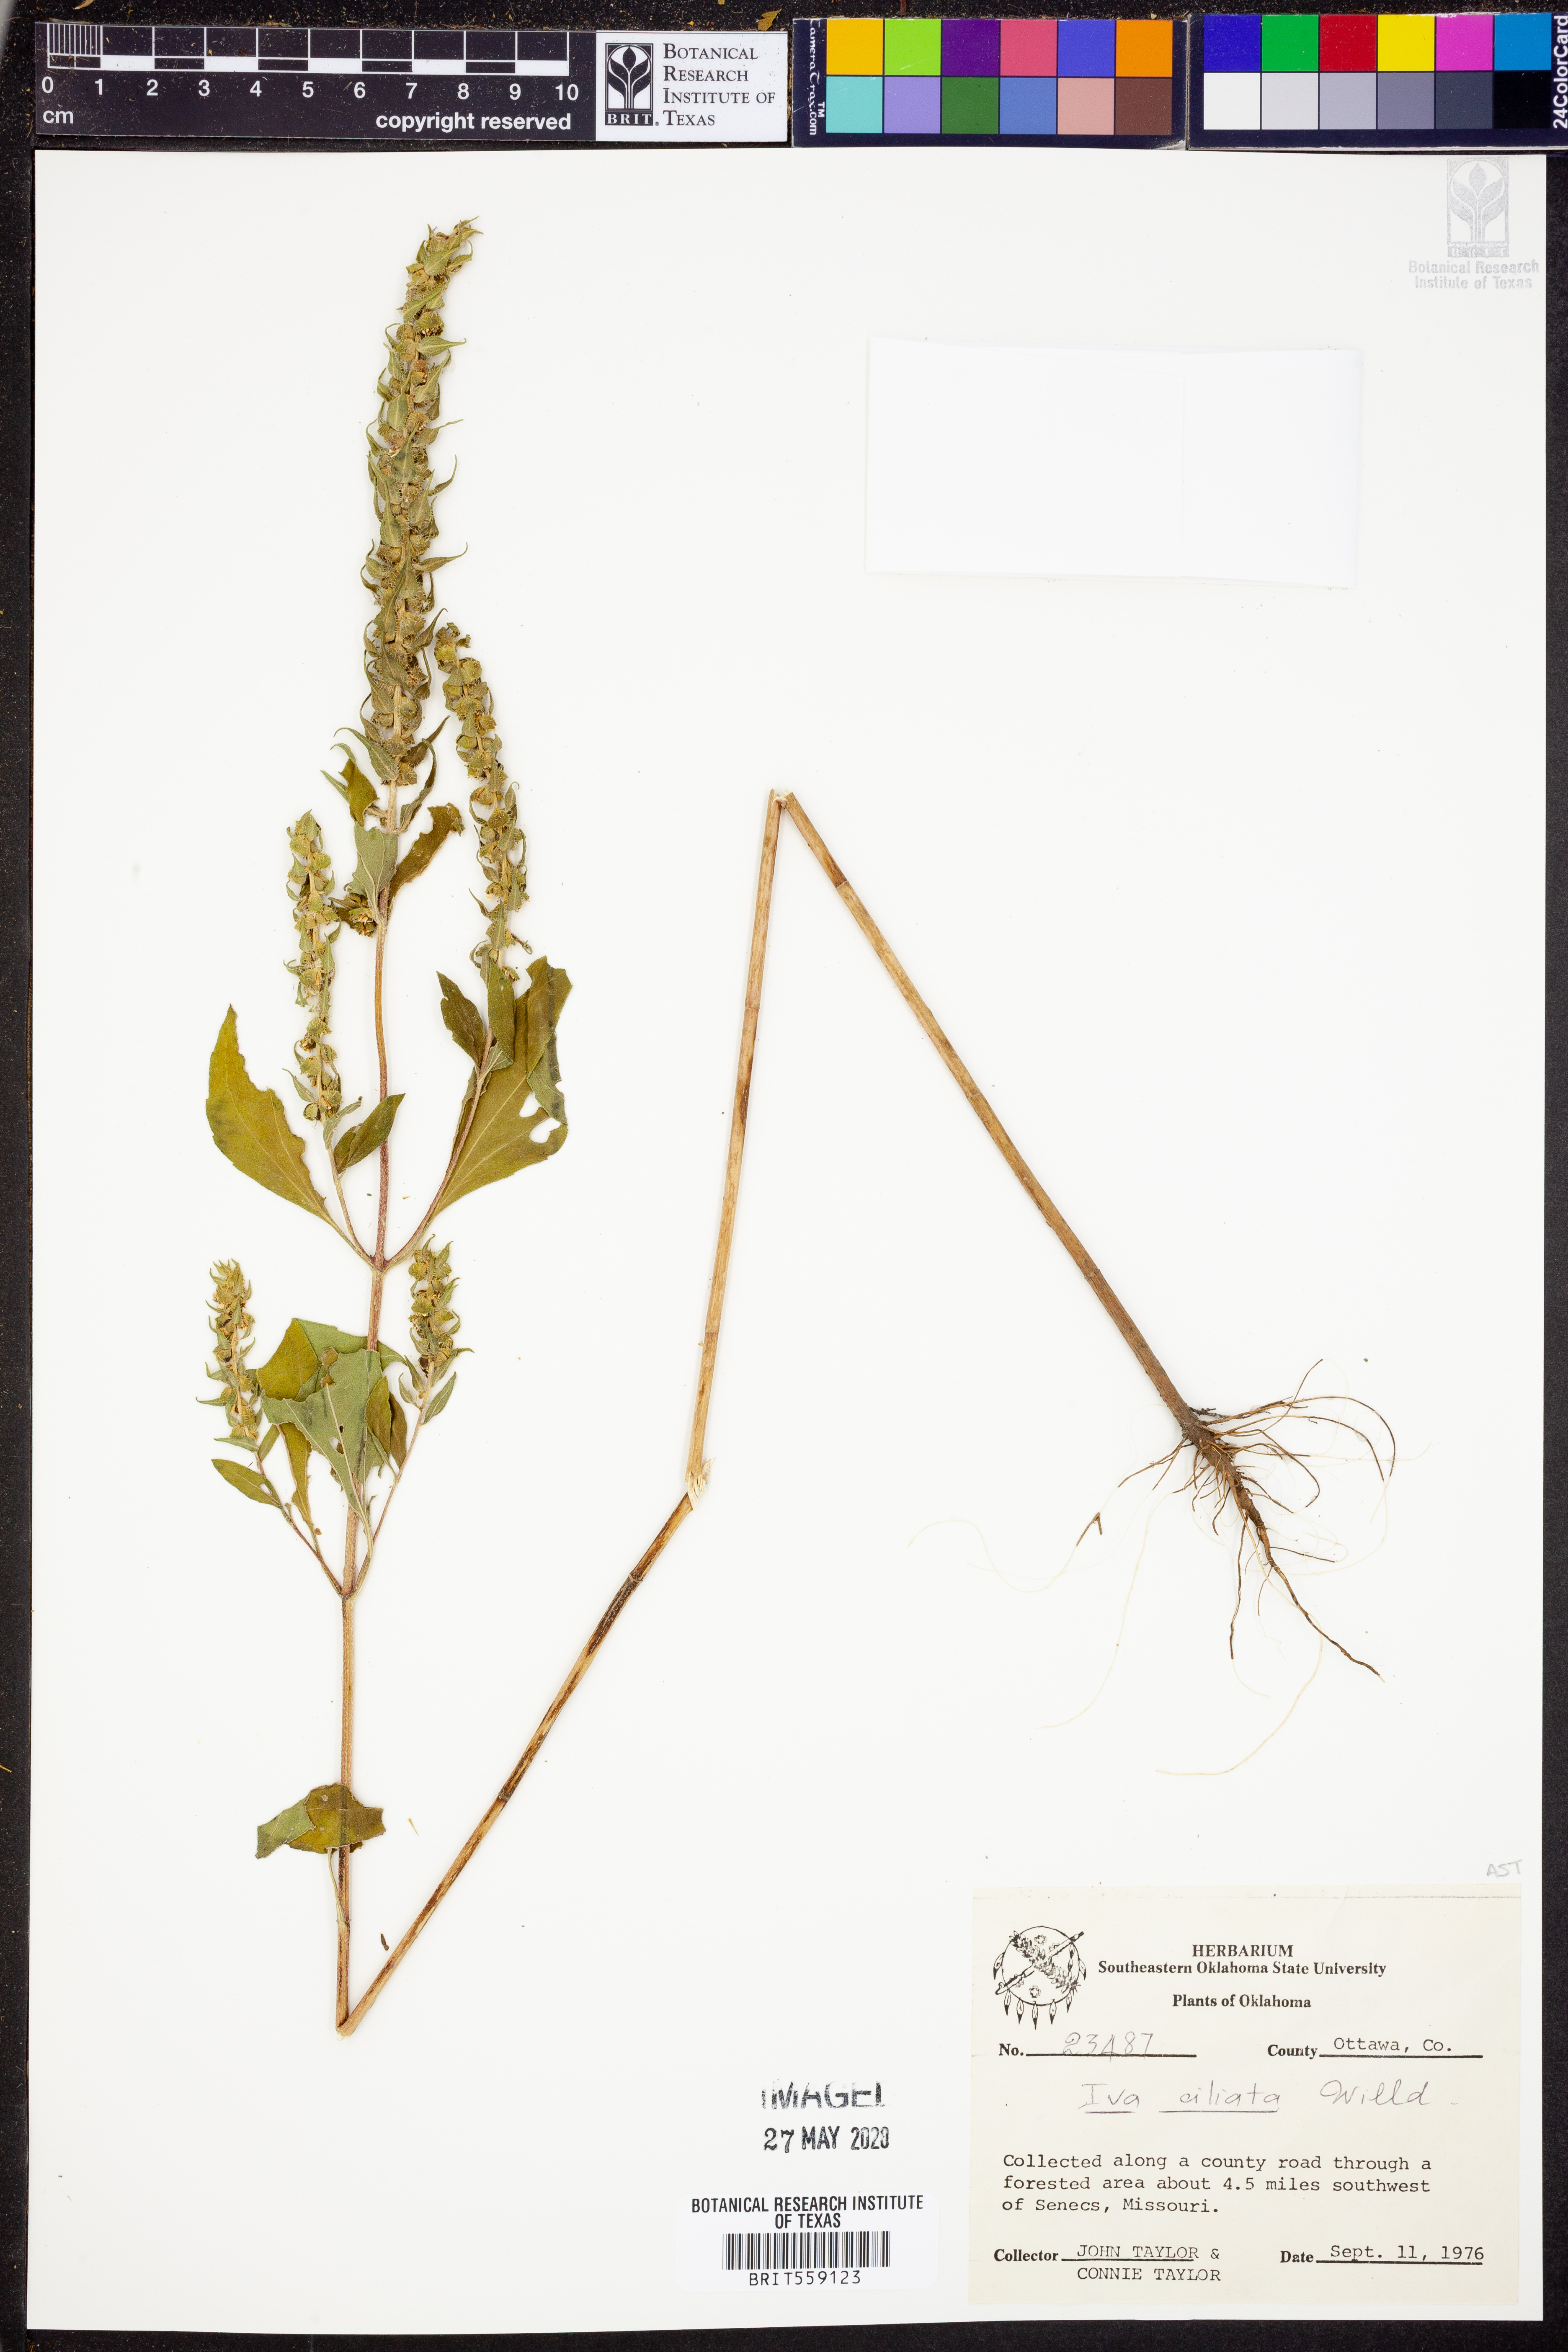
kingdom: Plantae
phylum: Tracheophyta
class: Magnoliopsida
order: Asterales
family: Asteraceae
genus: Iva
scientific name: Iva annua
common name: Marsh-elder
